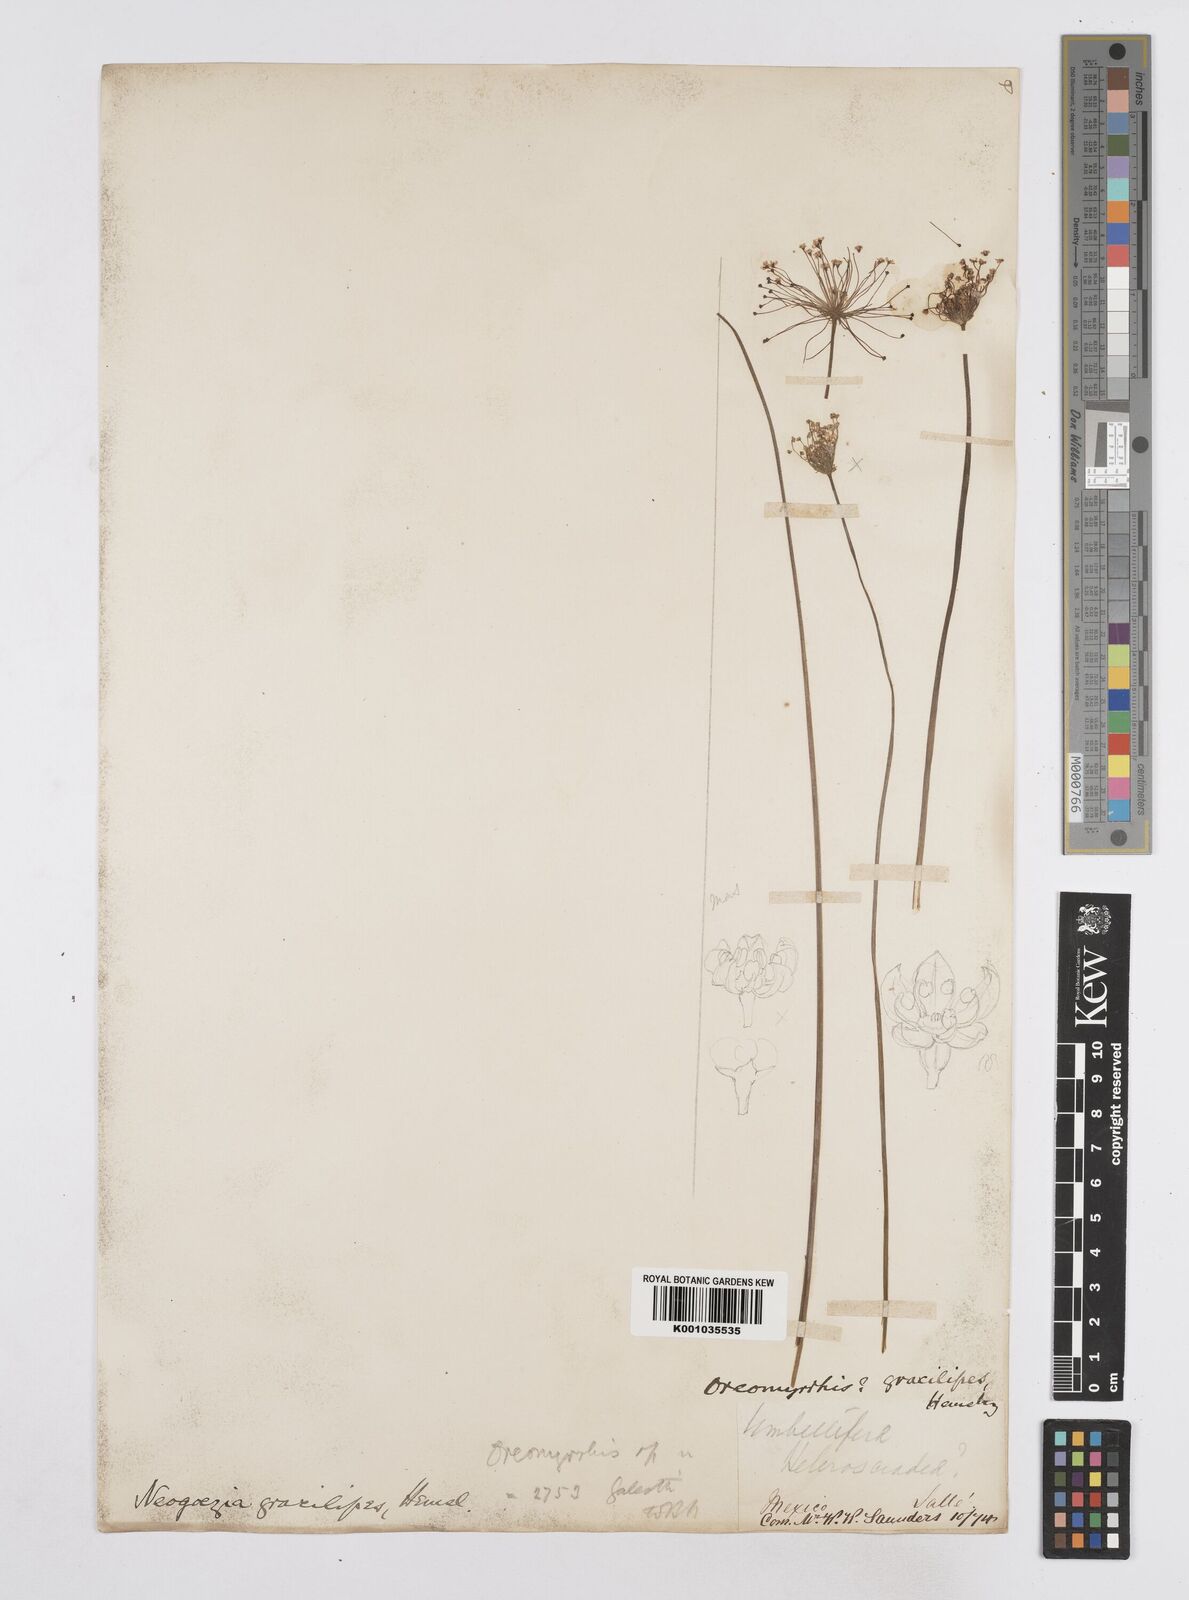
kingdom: Plantae
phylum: Tracheophyta
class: Magnoliopsida
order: Apiales
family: Apiaceae
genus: Neogoezia
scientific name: Neogoezia gracilipes
